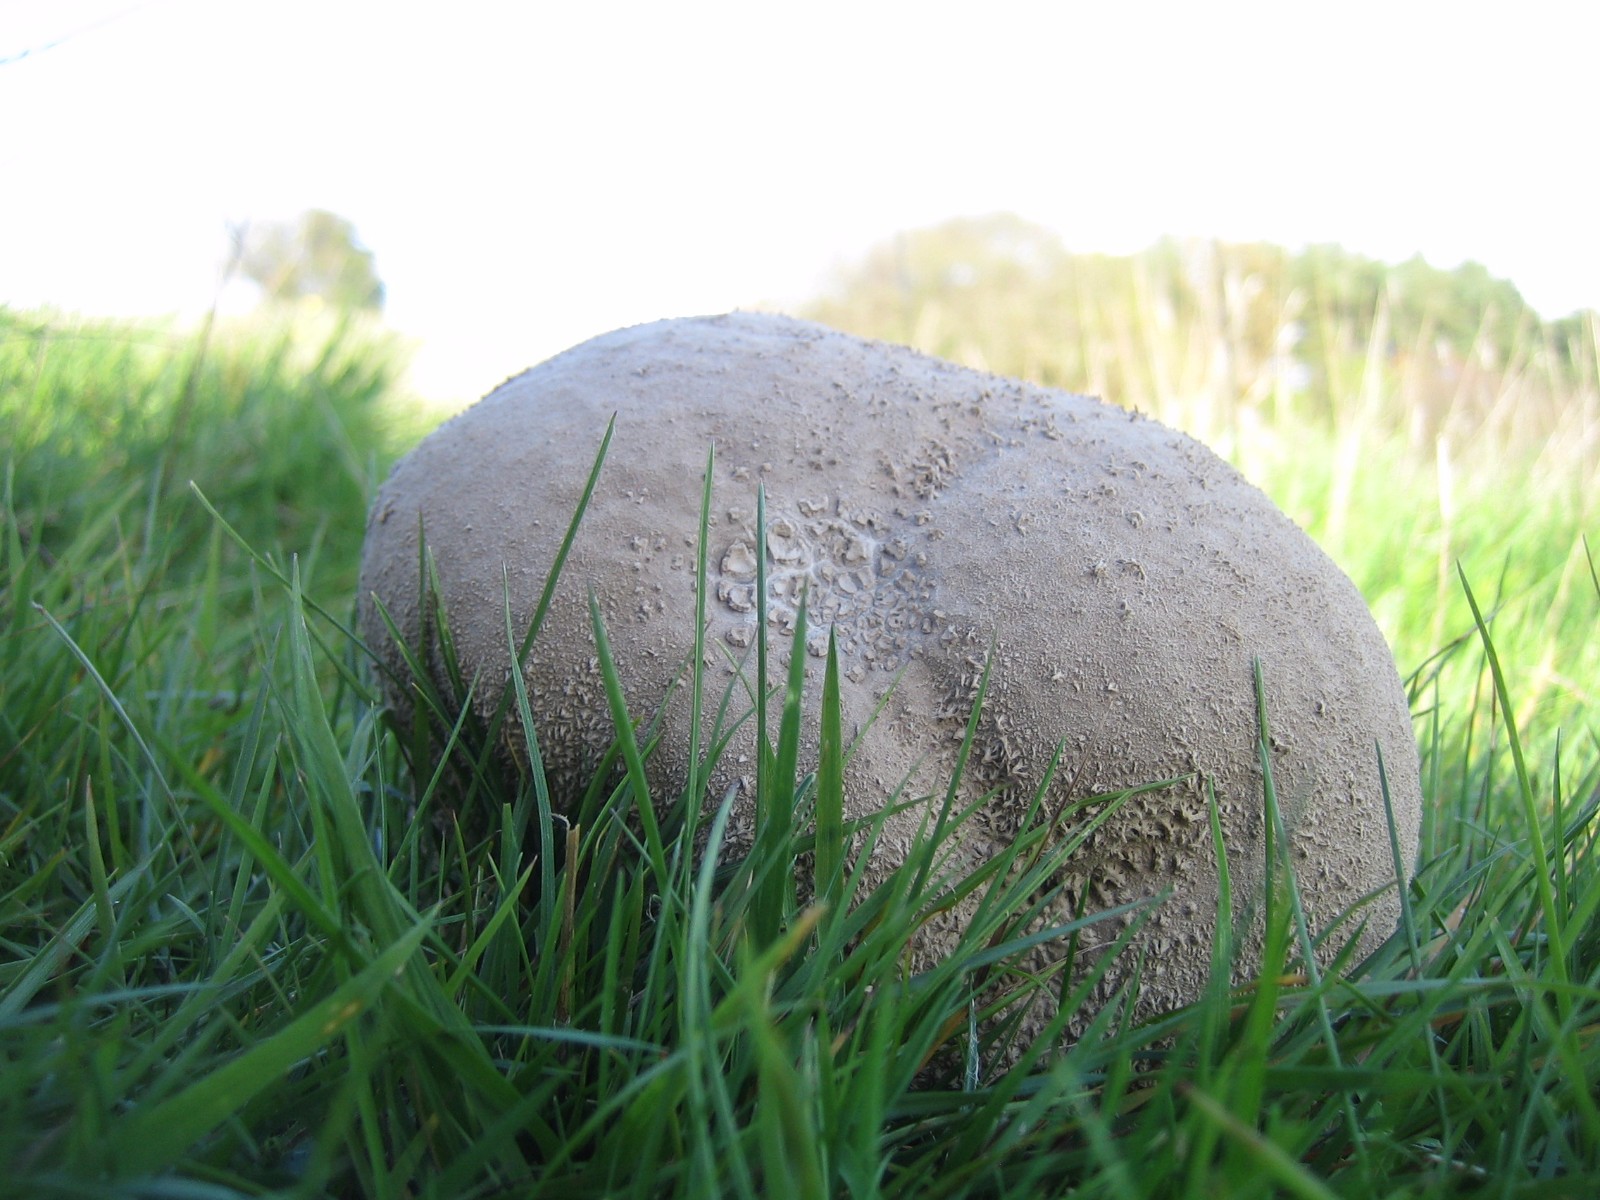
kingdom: Fungi
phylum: Basidiomycota
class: Agaricomycetes
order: Agaricales
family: Lycoperdaceae
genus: Bovistella
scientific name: Bovistella utriformis
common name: skællet støvbold
